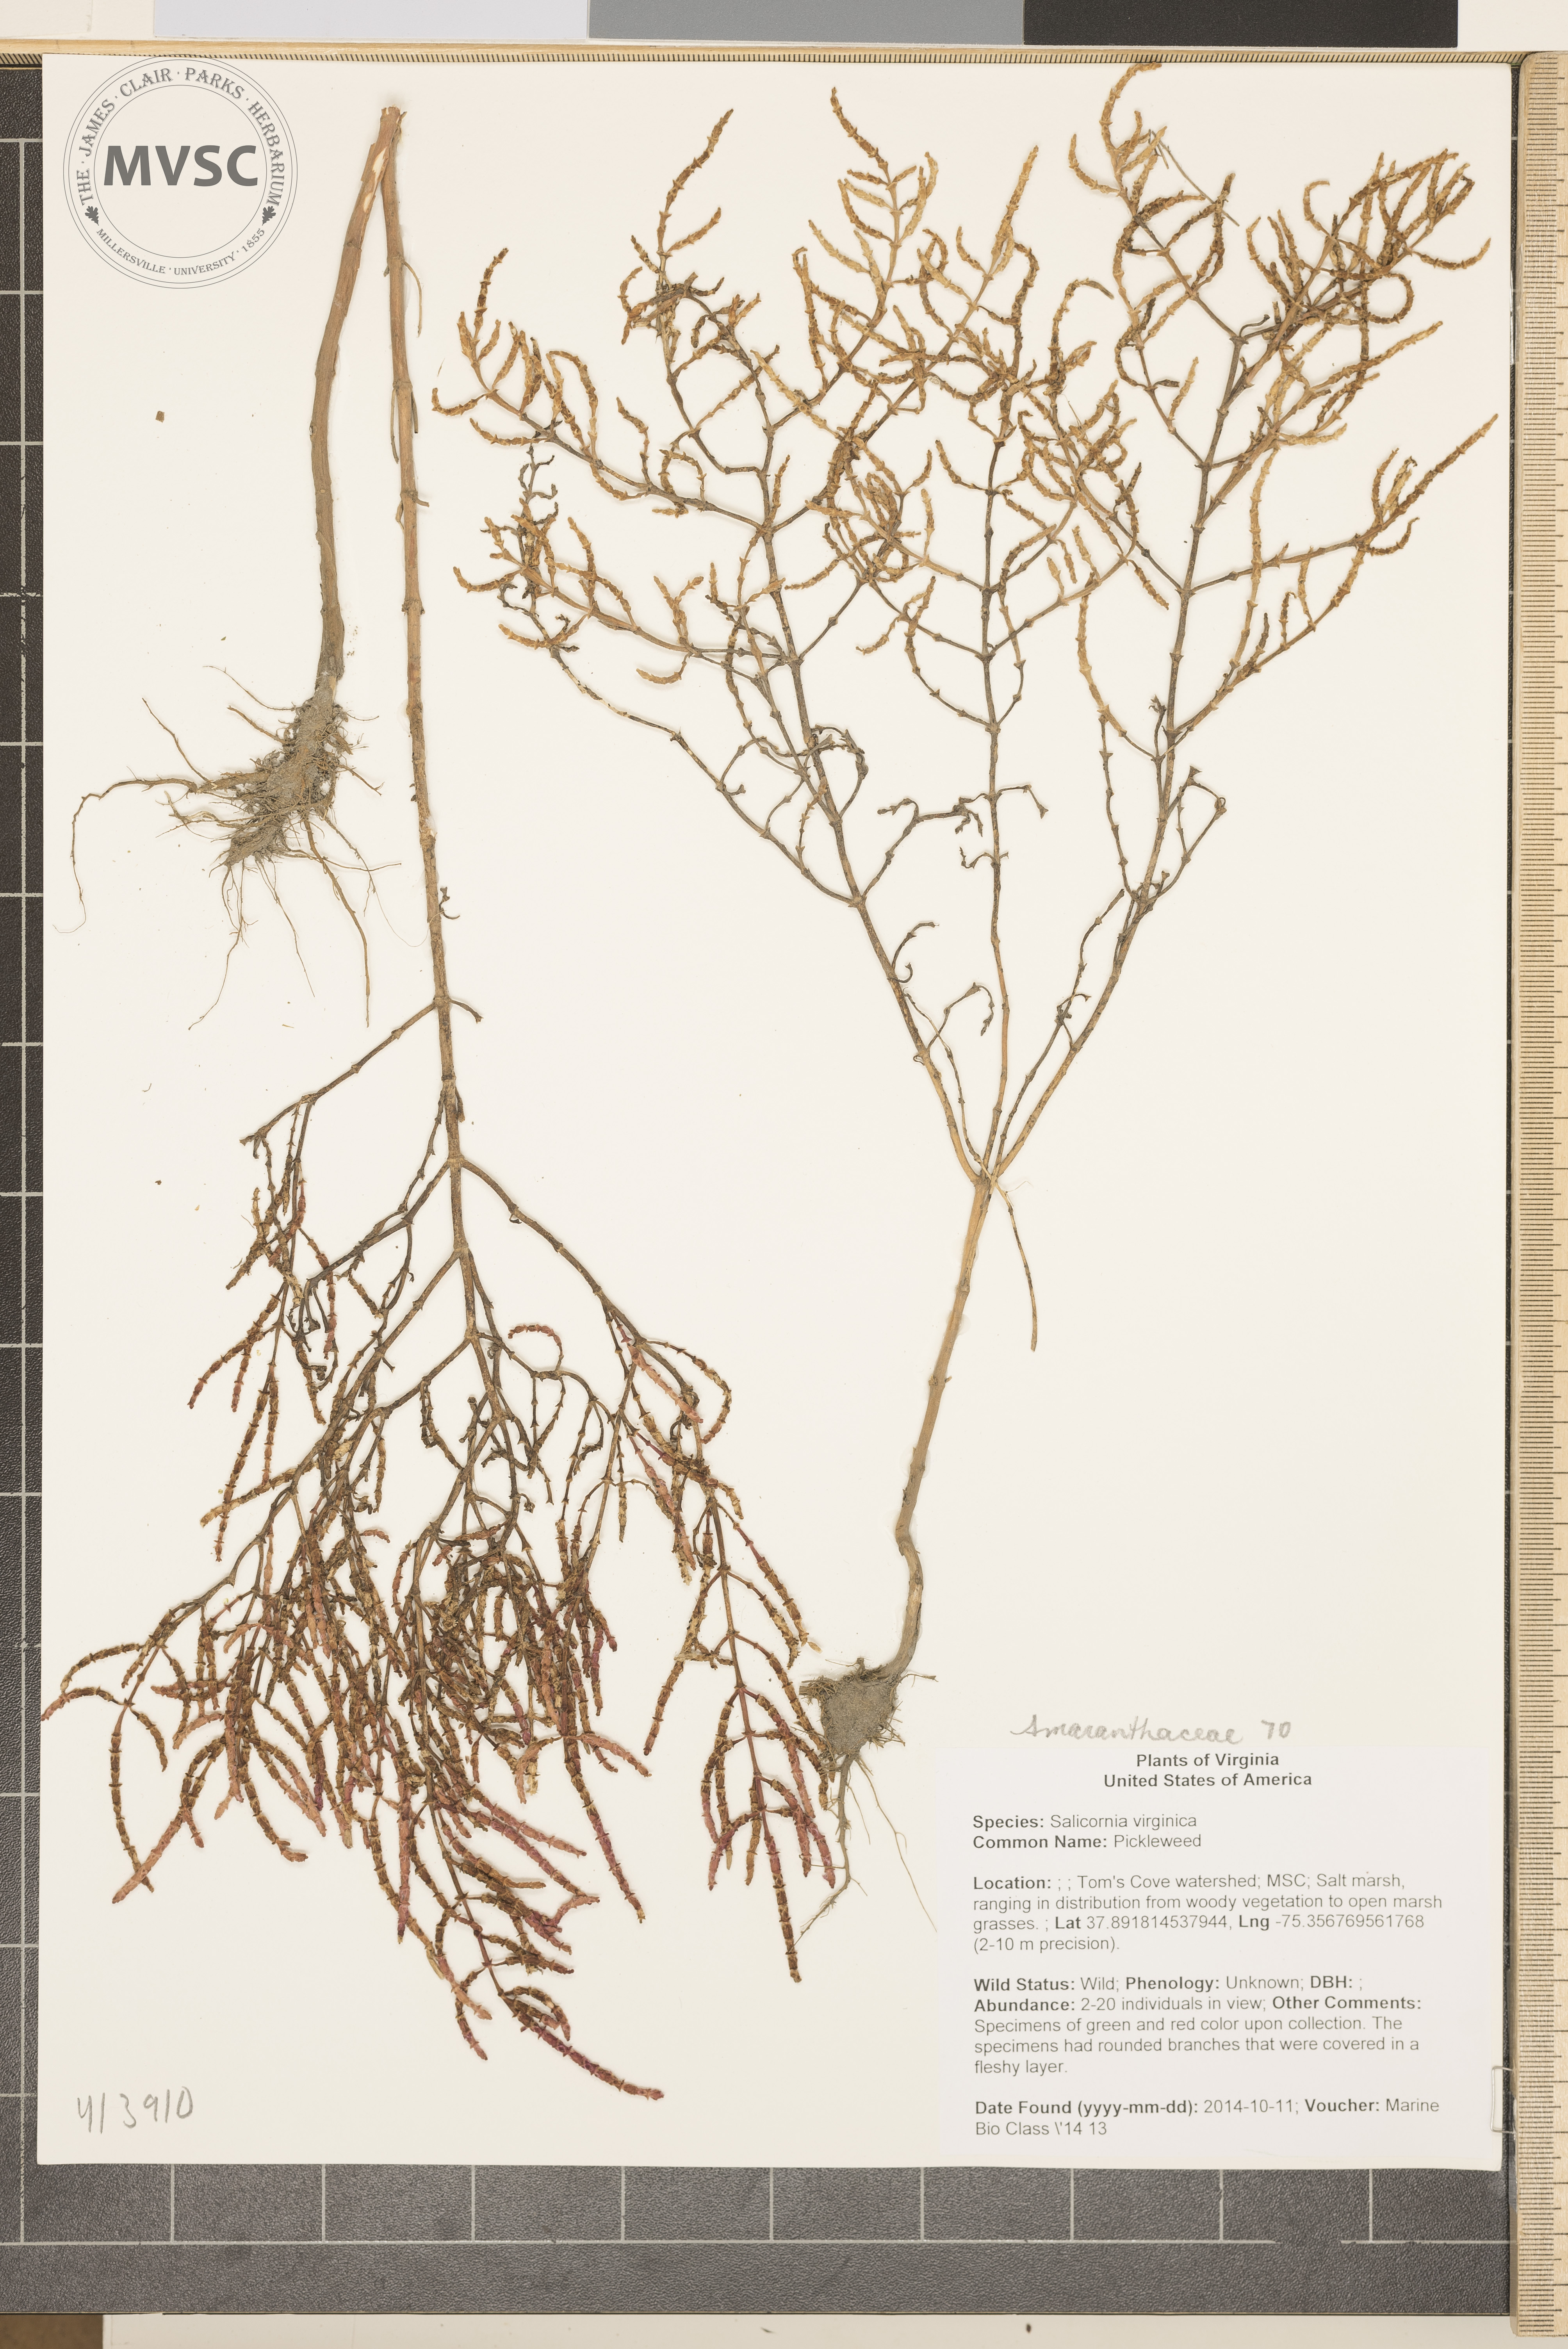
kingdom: Plantae
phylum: Tracheophyta
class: Magnoliopsida
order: Caryophyllales
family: Amaranthaceae
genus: Salicornia
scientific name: Salicornia virginica
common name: Pickleweed
